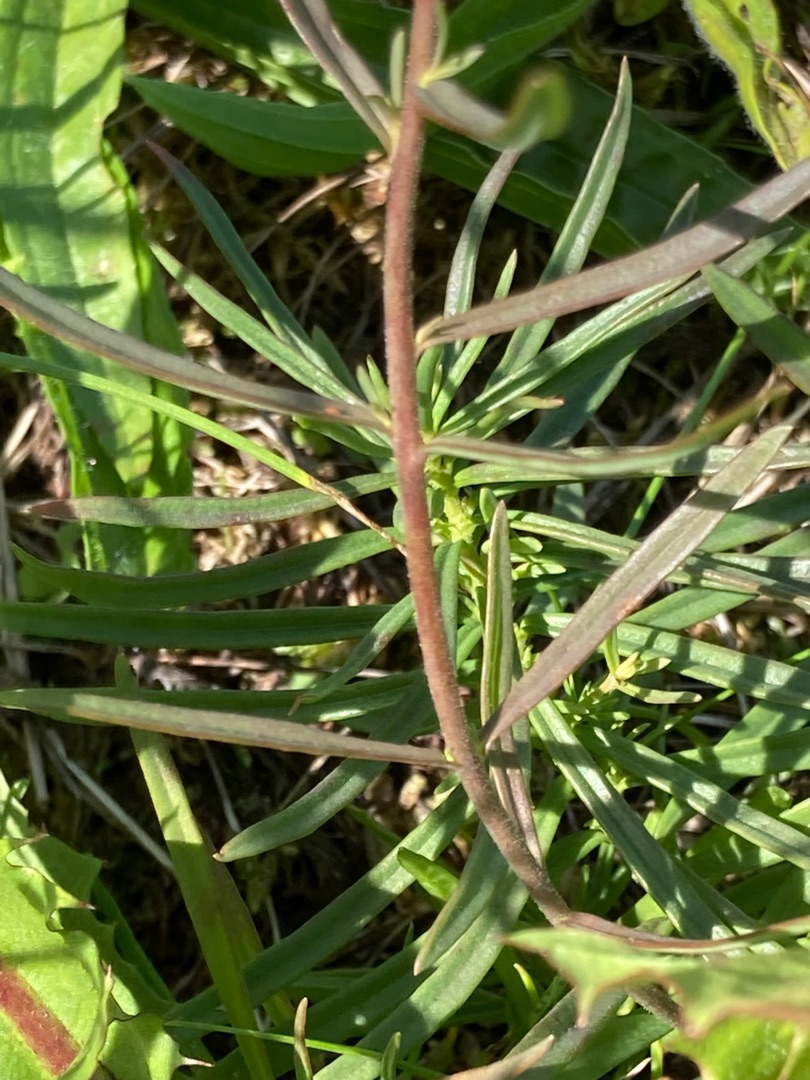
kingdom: Plantae
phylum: Tracheophyta
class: Magnoliopsida
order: Lamiales
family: Plantaginaceae
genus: Linaria
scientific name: Linaria vulgaris
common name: Almindelig torskemund
